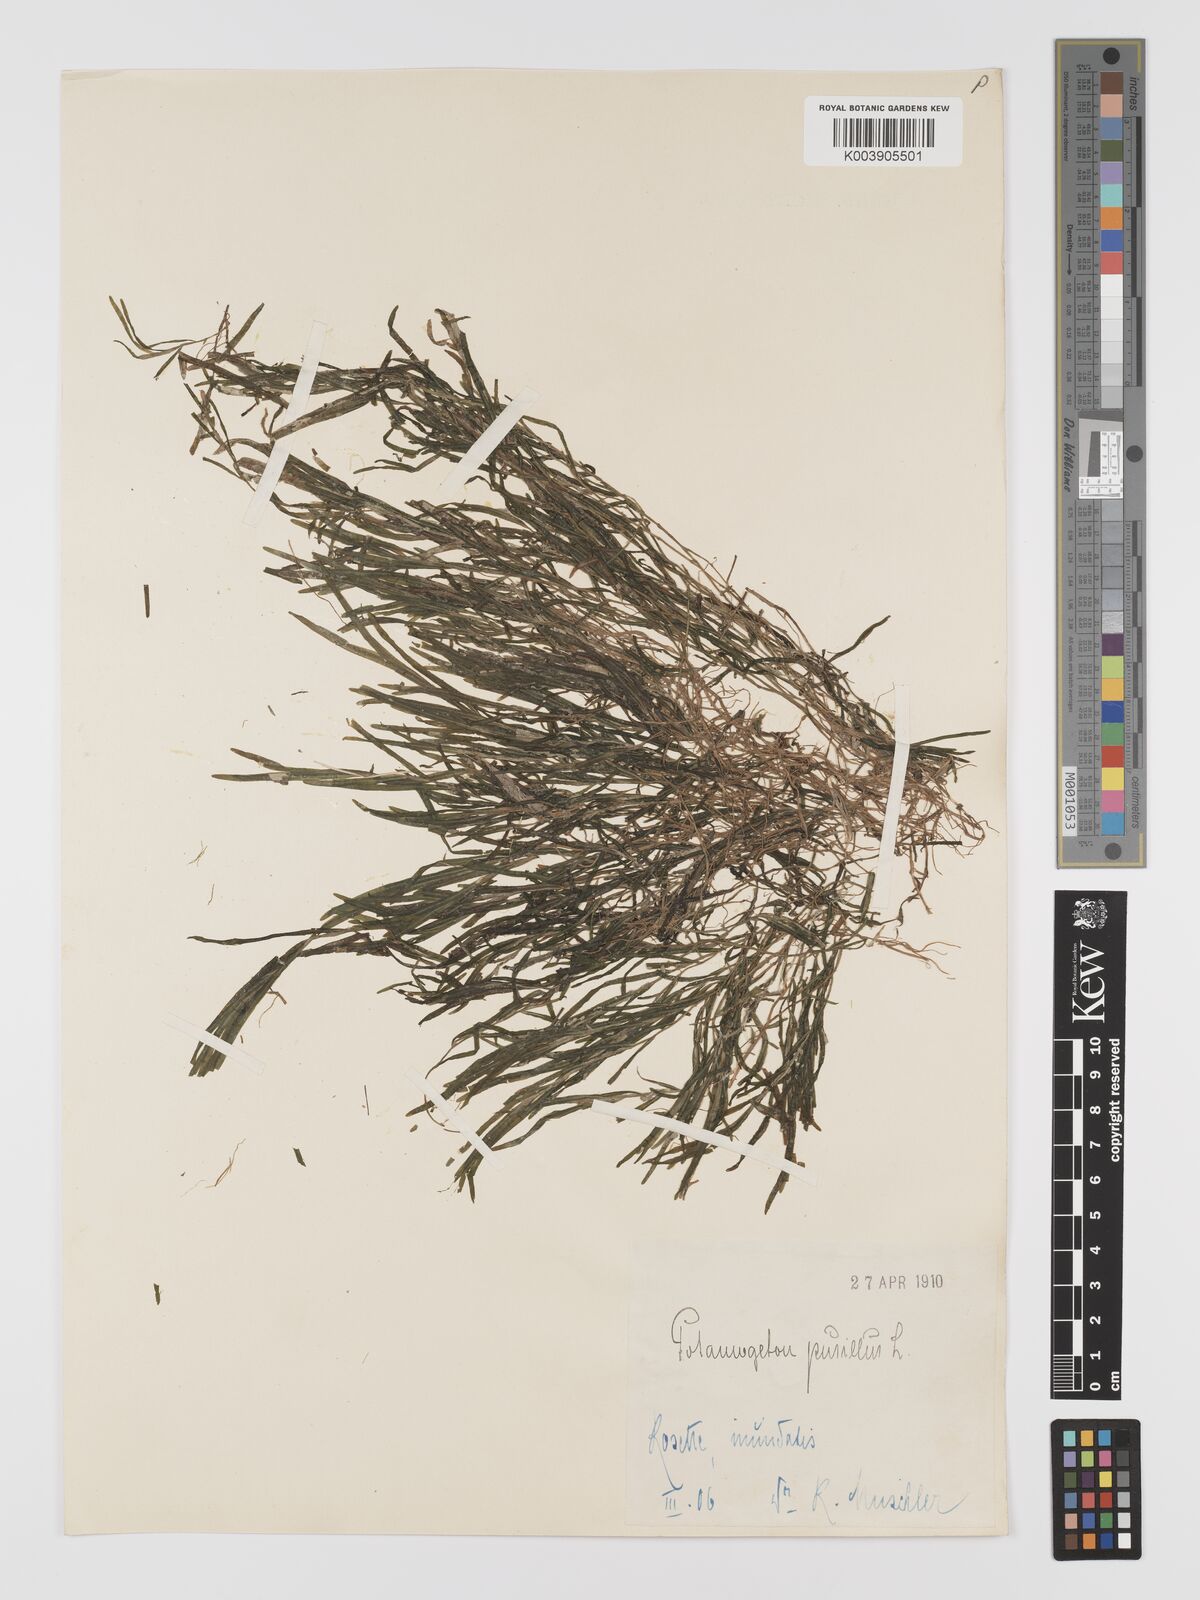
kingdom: Plantae
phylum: Tracheophyta
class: Liliopsida
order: Alismatales
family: Potamogetonaceae
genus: Potamogeton
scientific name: Potamogeton pusillus
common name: Lesser pondweed
